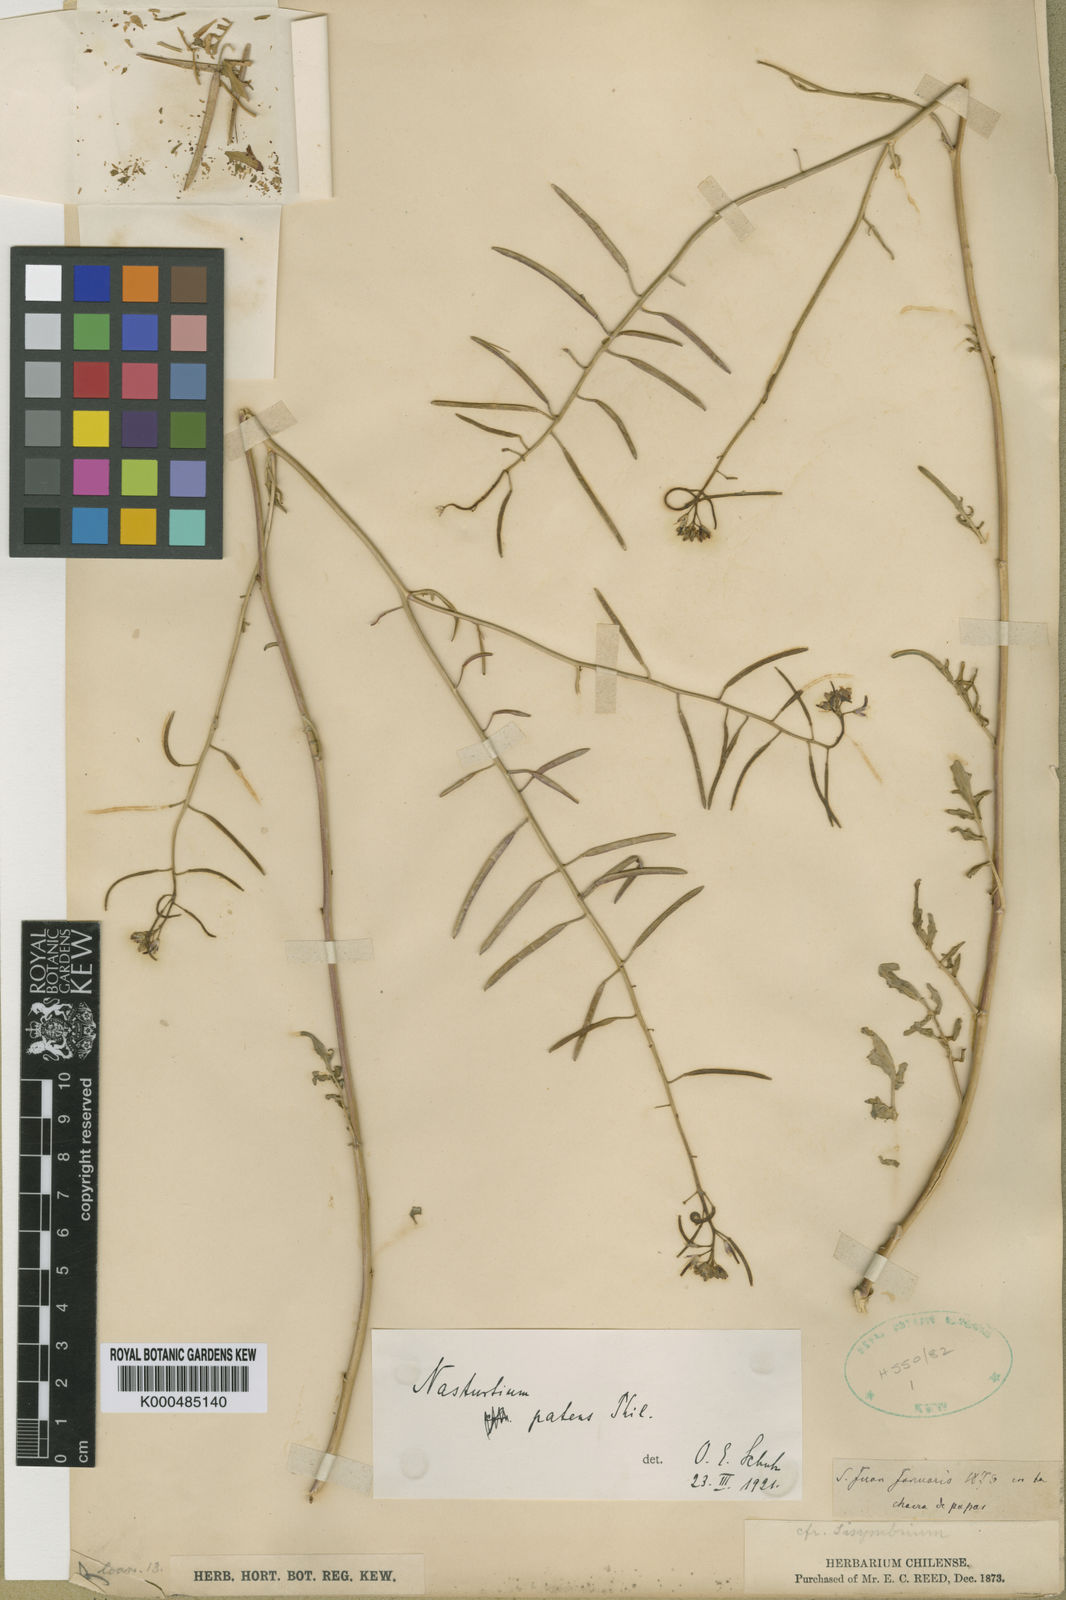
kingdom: Plantae
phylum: Tracheophyta
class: Magnoliopsida
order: Brassicales
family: Brassicaceae
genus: Rorippa
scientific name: Rorippa
